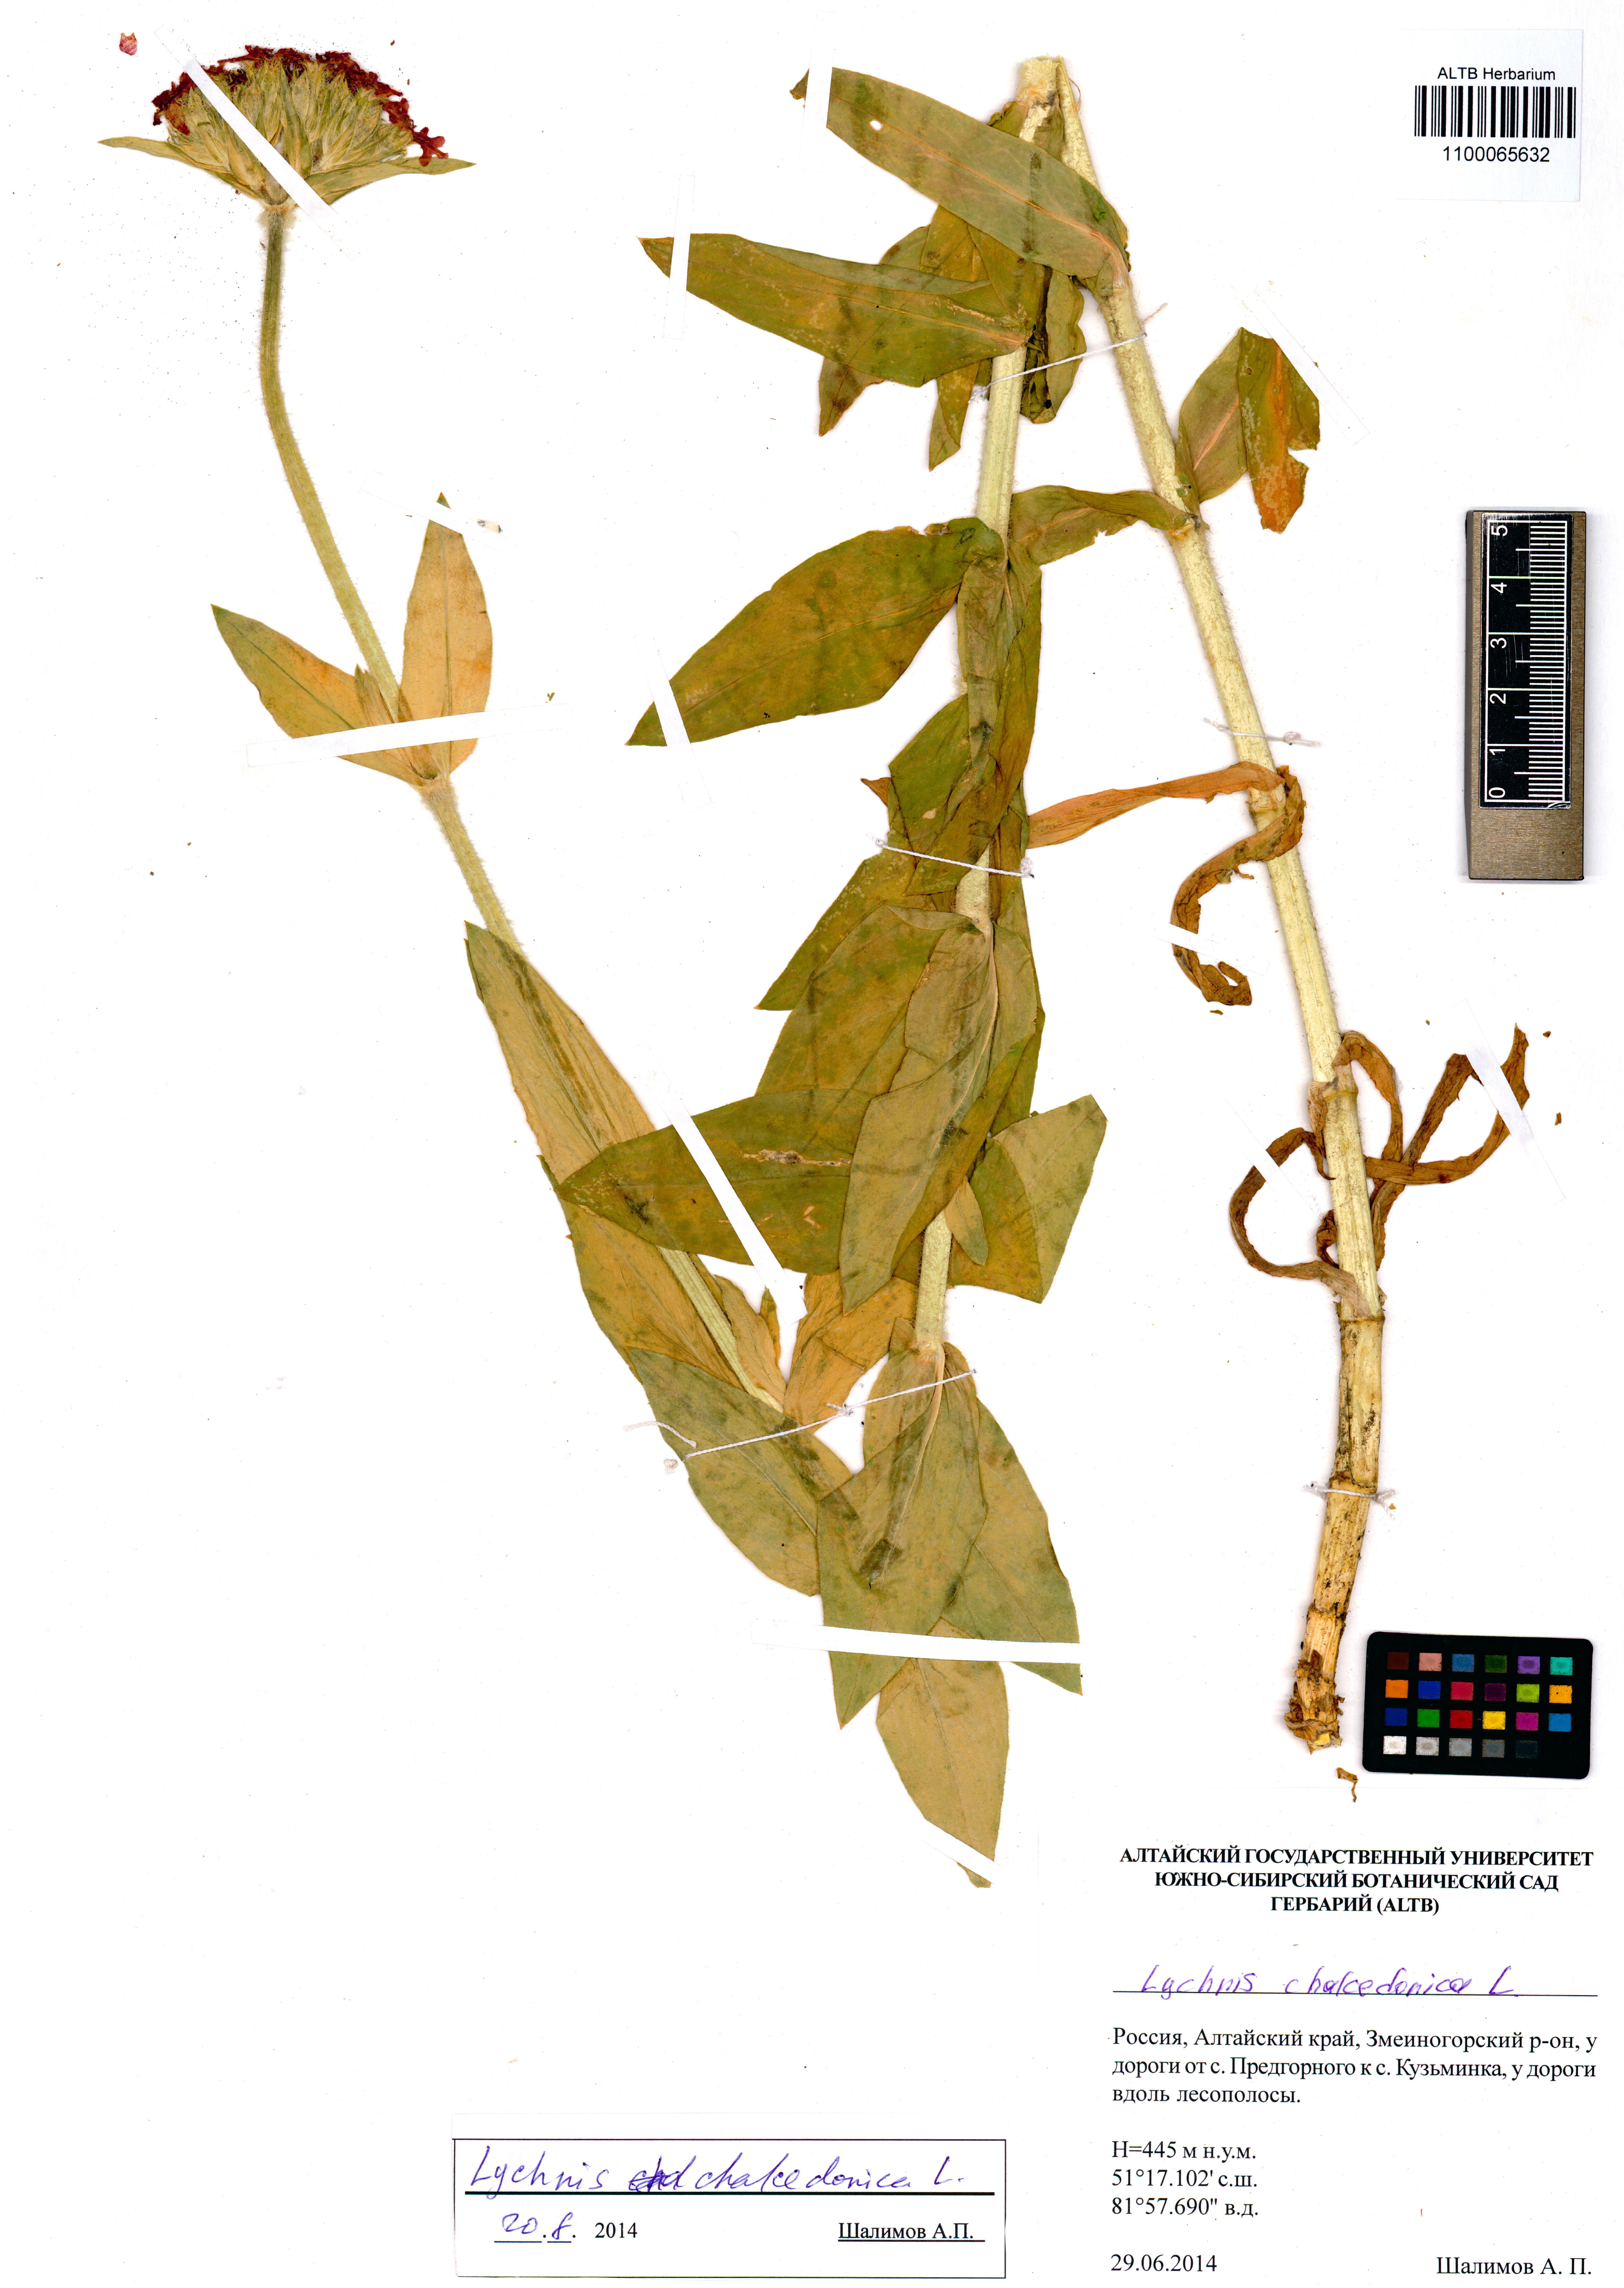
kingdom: Plantae
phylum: Tracheophyta
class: Magnoliopsida
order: Caryophyllales
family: Caryophyllaceae
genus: Silene
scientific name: Silene chalcedonica
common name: Maltese-cross
